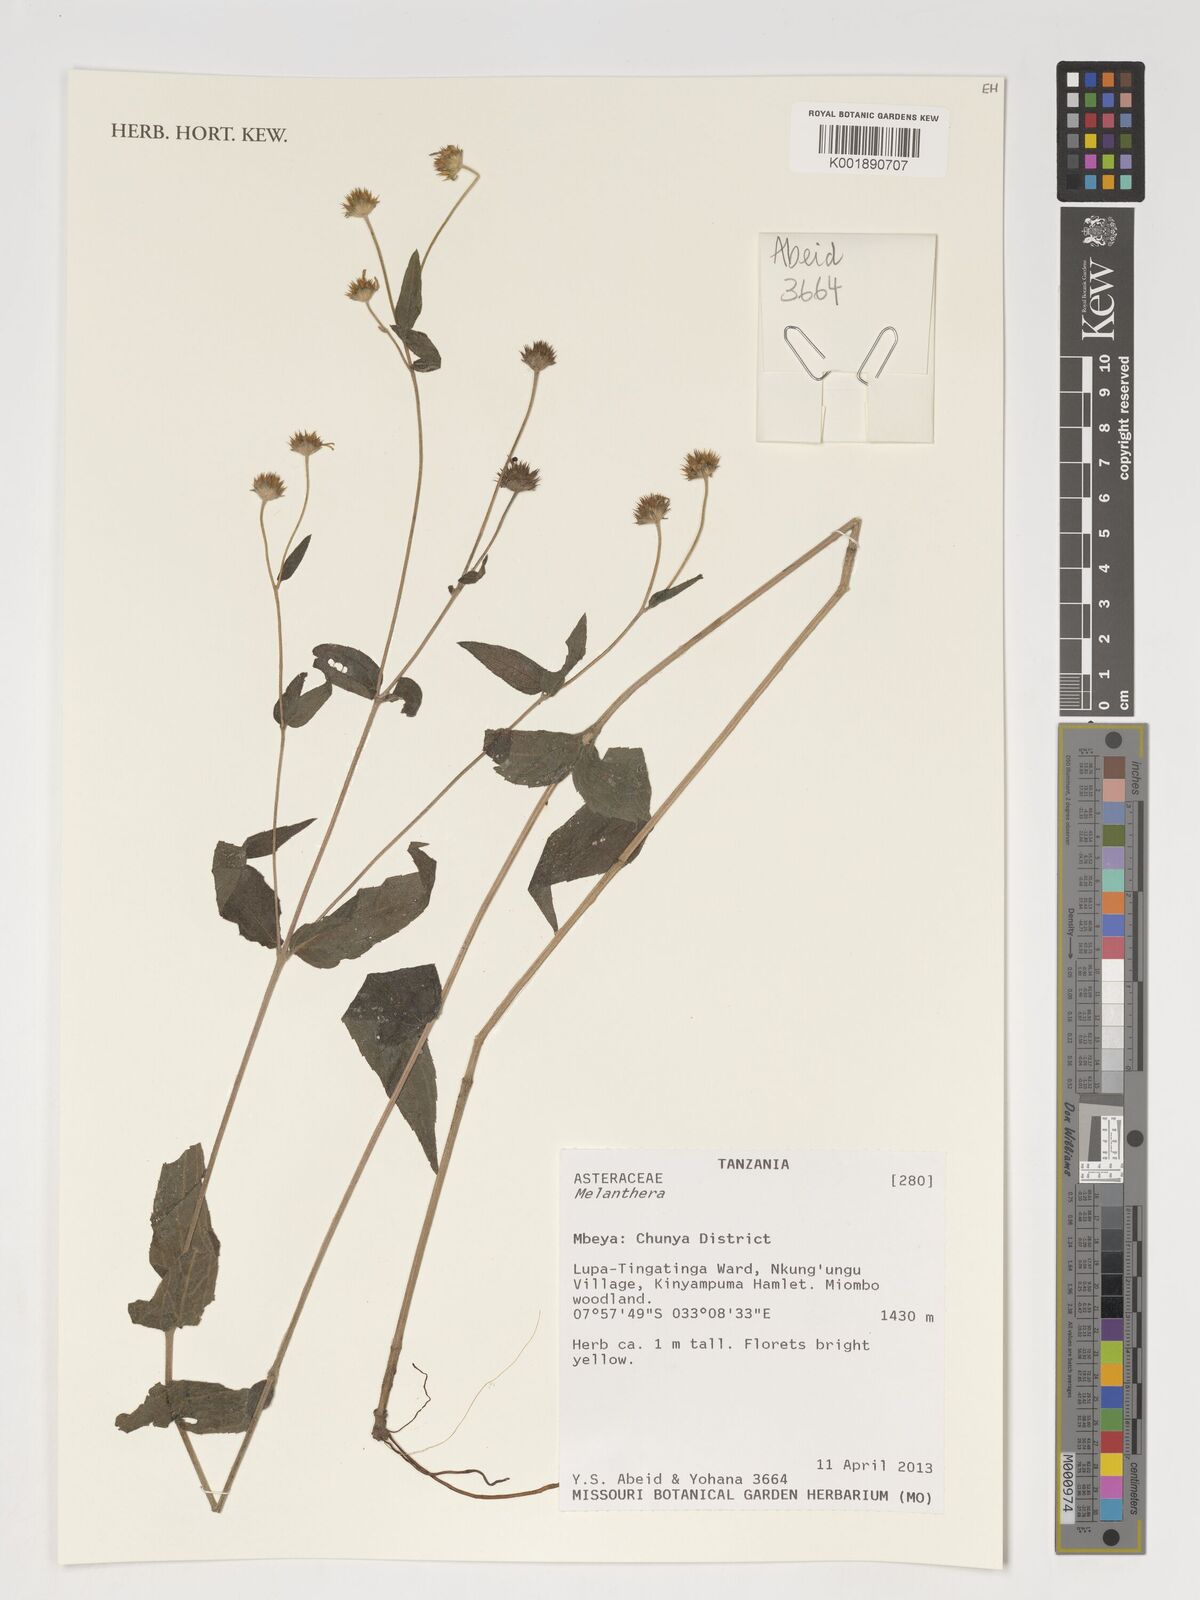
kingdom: Plantae
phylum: Tracheophyta
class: Magnoliopsida
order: Asterales
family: Asteraceae
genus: Melanthera
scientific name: Melanthera
